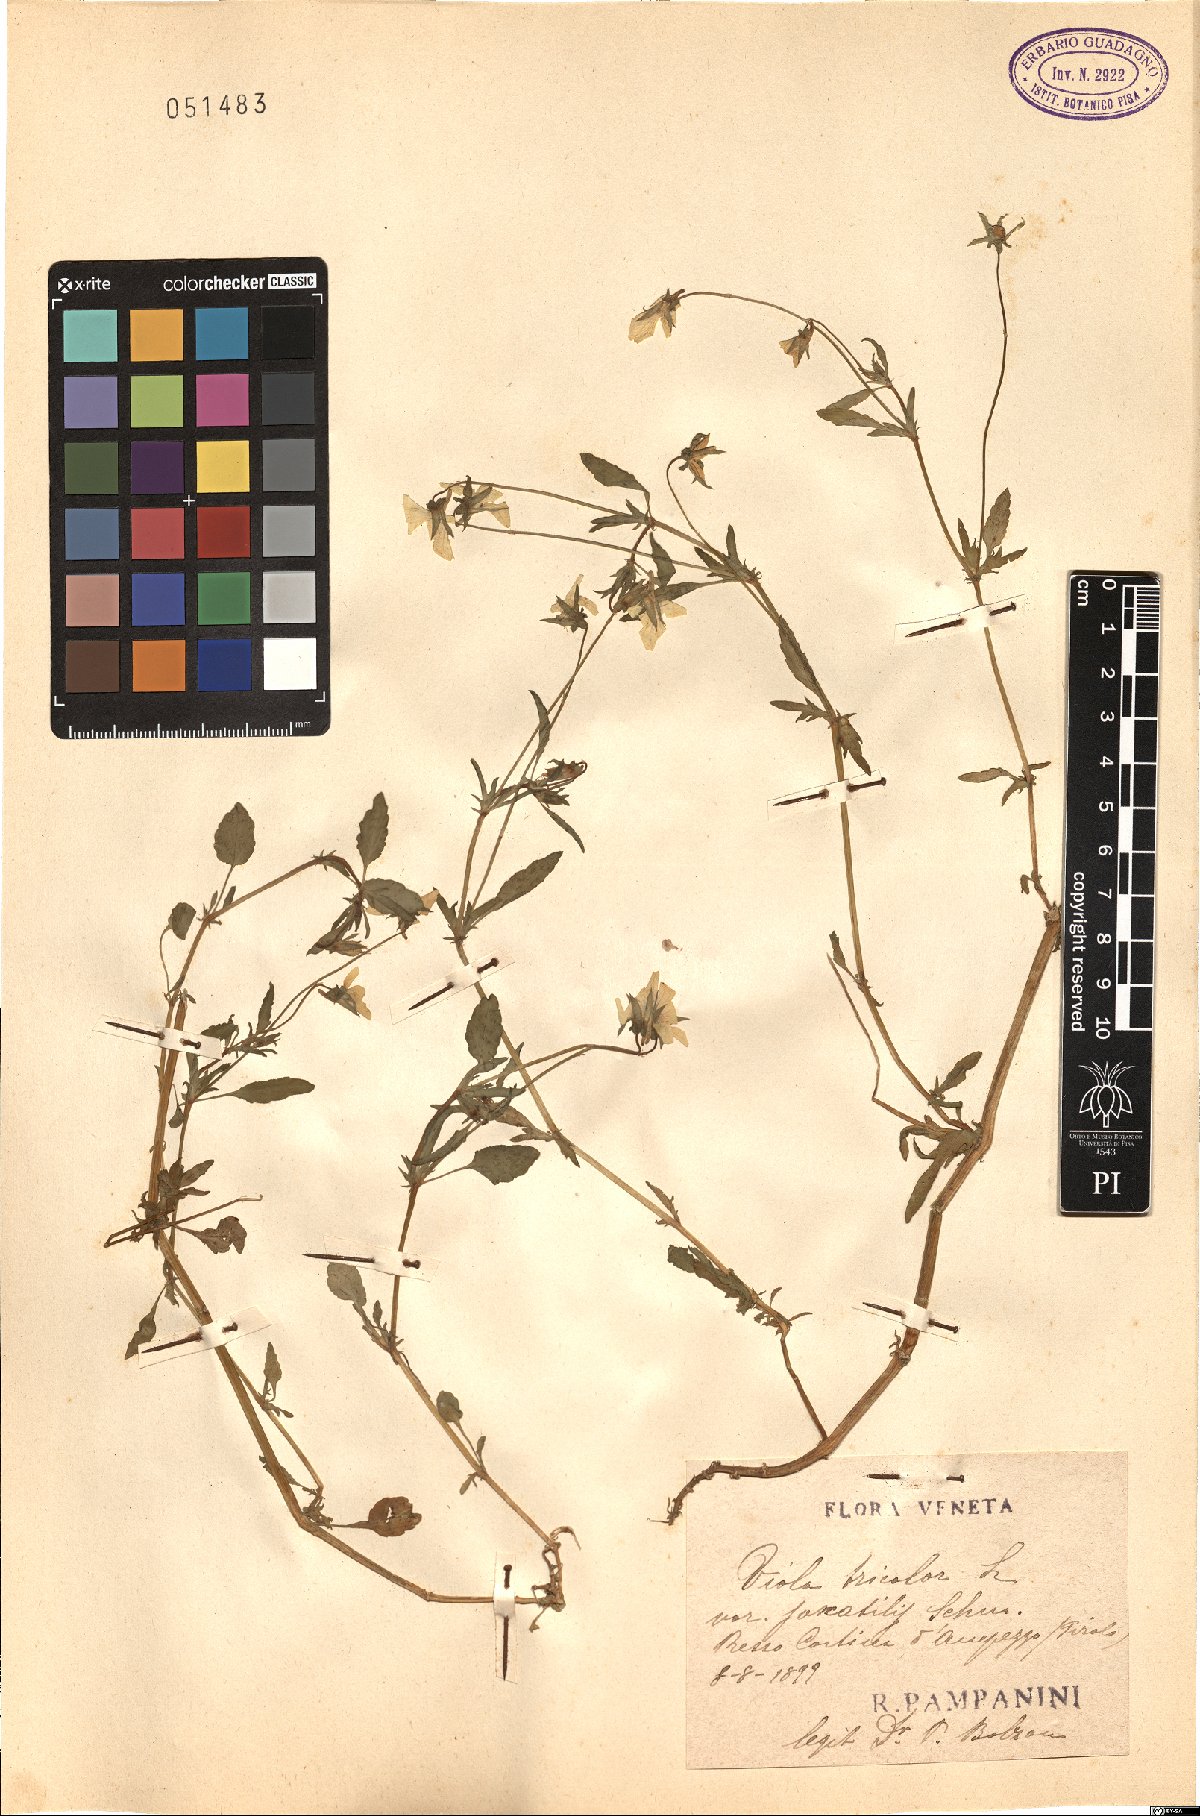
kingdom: Plantae
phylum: Tracheophyta
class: Magnoliopsida
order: Malpighiales
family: Violaceae
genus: Viola
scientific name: Viola tricolor
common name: Pansy
